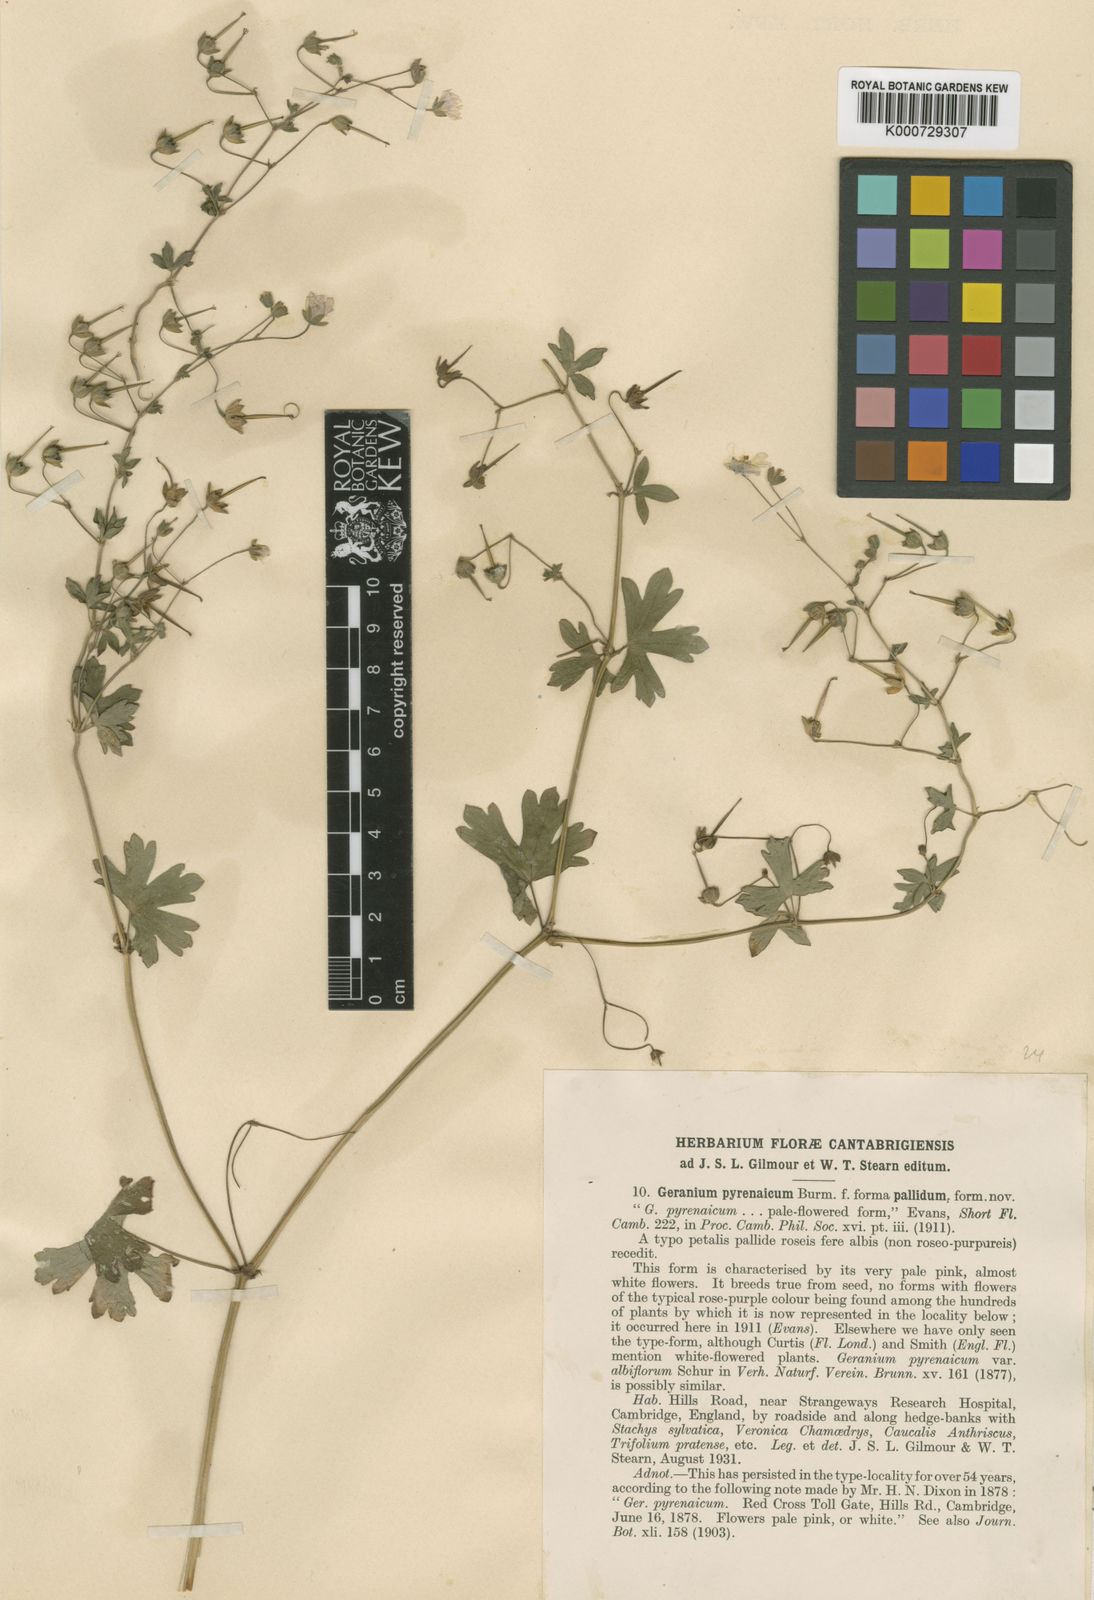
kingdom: Plantae
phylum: Tracheophyta
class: Magnoliopsida
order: Geraniales
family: Geraniaceae
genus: Geranium
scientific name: Geranium pyrenaicum
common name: Hedgerow crane's-bill
